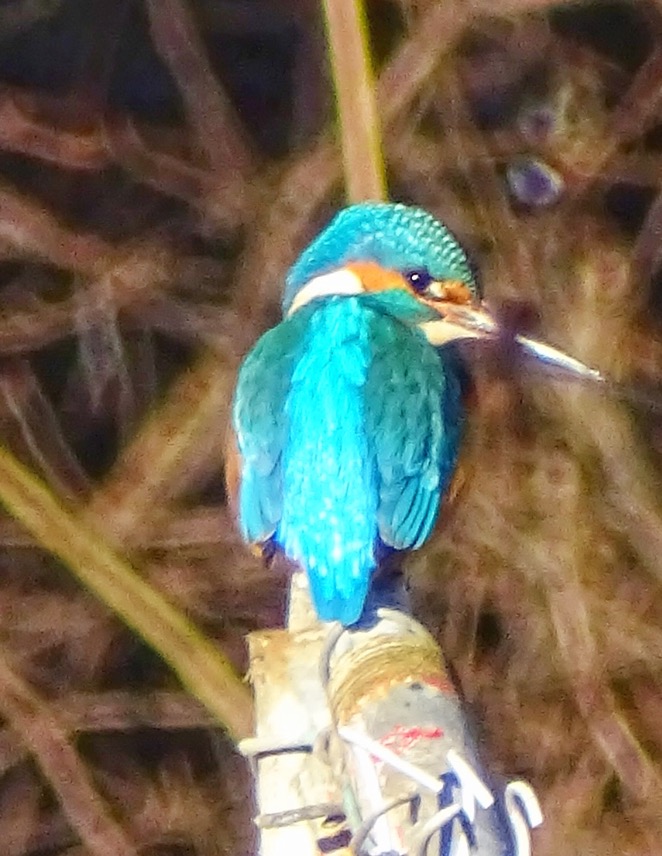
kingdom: Animalia
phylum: Chordata
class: Aves
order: Coraciiformes
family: Alcedinidae
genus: Alcedo
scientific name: Alcedo atthis
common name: Isfugl
